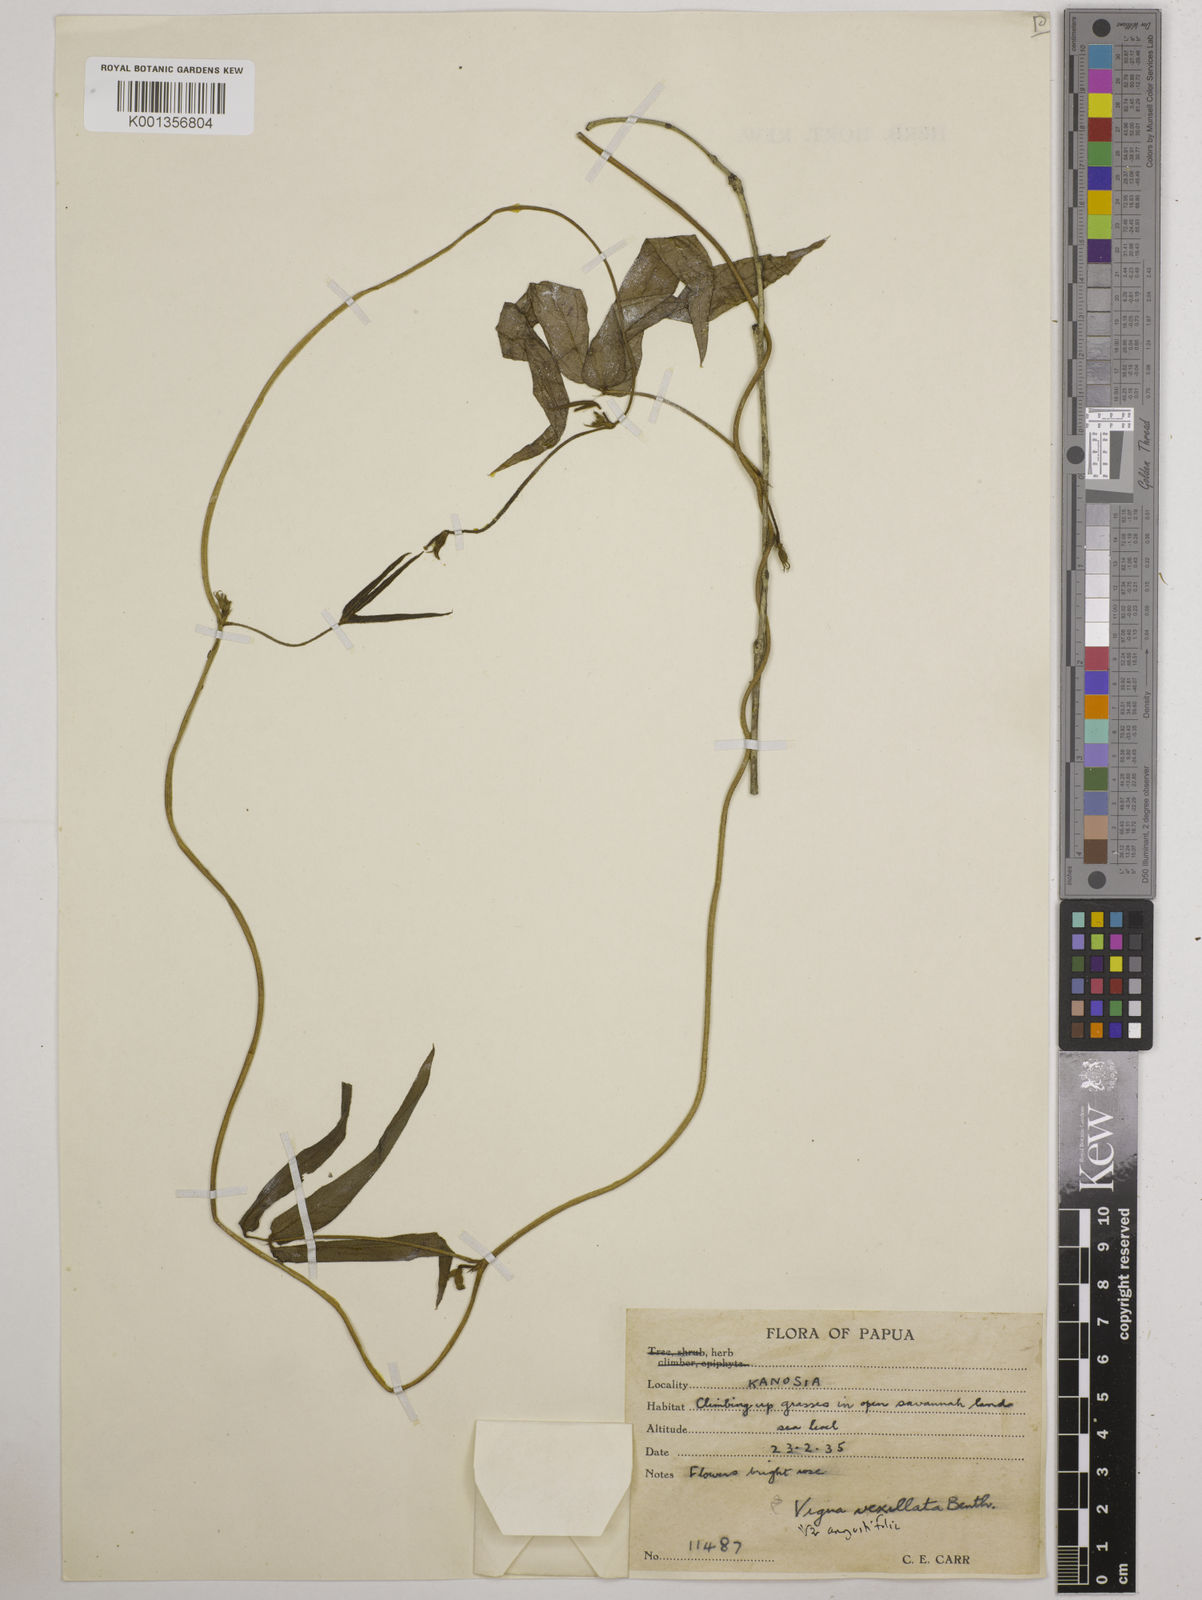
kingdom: Plantae
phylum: Tracheophyta
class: Magnoliopsida
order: Fabales
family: Fabaceae
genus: Vigna
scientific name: Vigna vexillata
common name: Zombi pea
